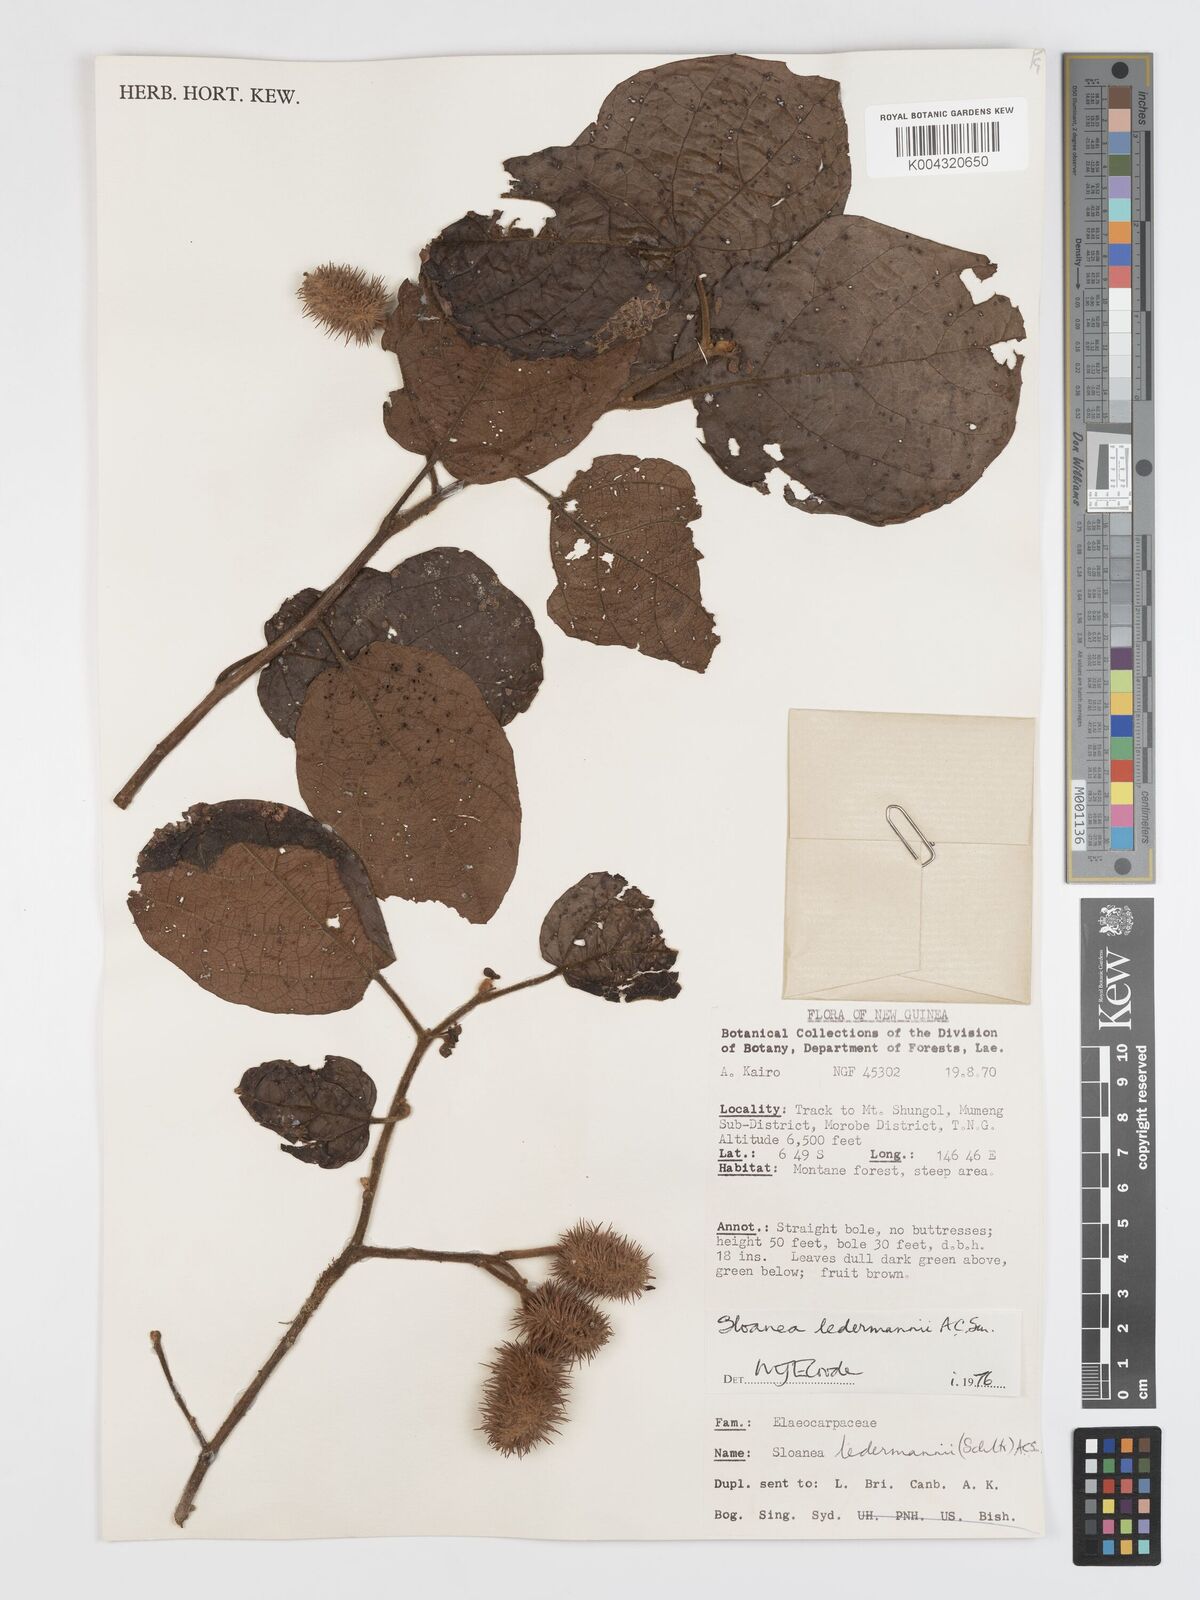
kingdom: Plantae
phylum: Tracheophyta
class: Magnoliopsida
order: Oxalidales
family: Elaeocarpaceae
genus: Sloanea
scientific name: Sloanea ledermannii
